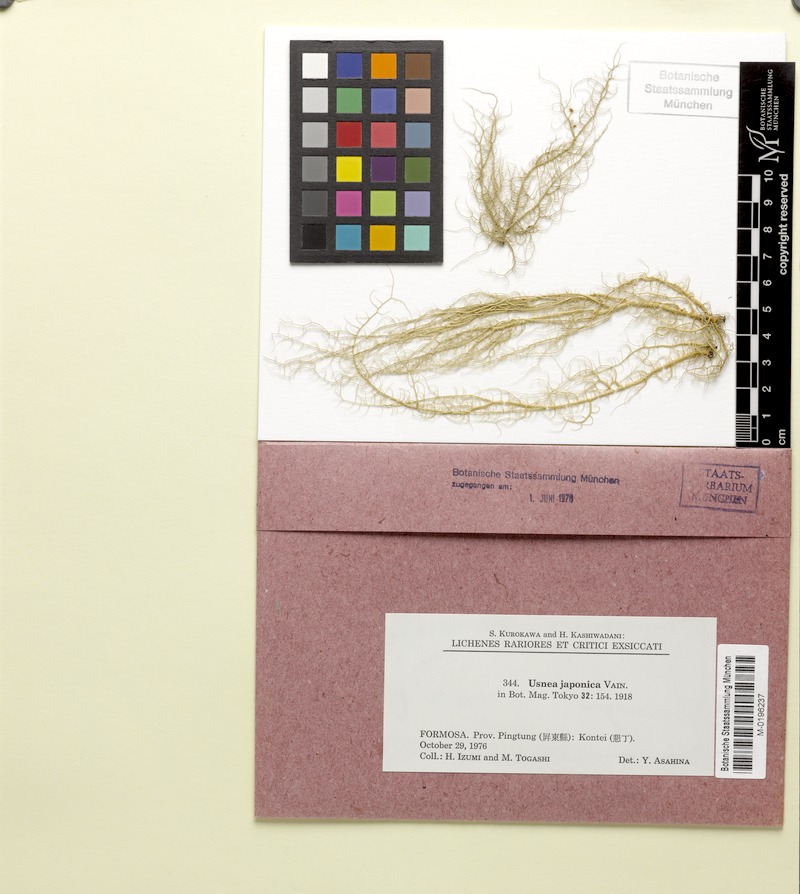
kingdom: Fungi
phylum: Ascomycota
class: Lecanoromycetes
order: Lecanorales
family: Parmeliaceae
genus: Usnea
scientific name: Usnea japonica
